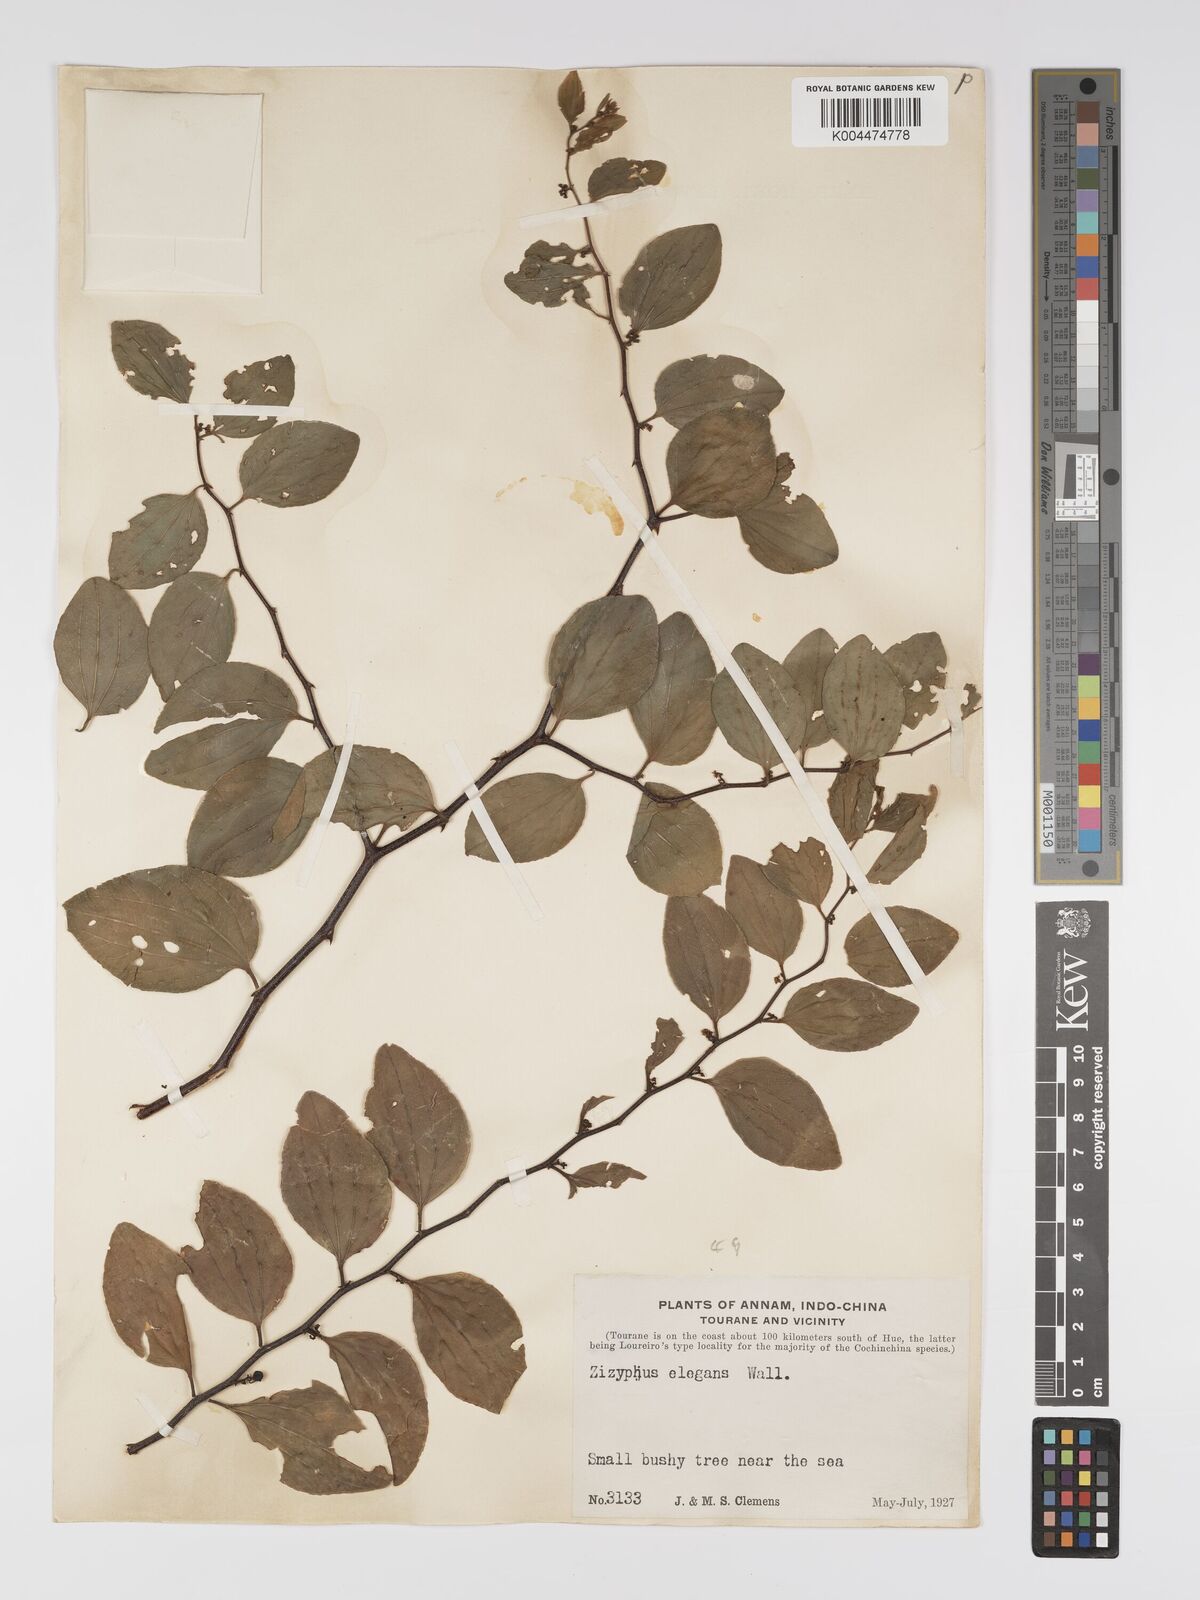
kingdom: Plantae
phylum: Tracheophyta
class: Magnoliopsida
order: Rosales
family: Rhamnaceae
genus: Ziziphus
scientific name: Ziziphus elegans
